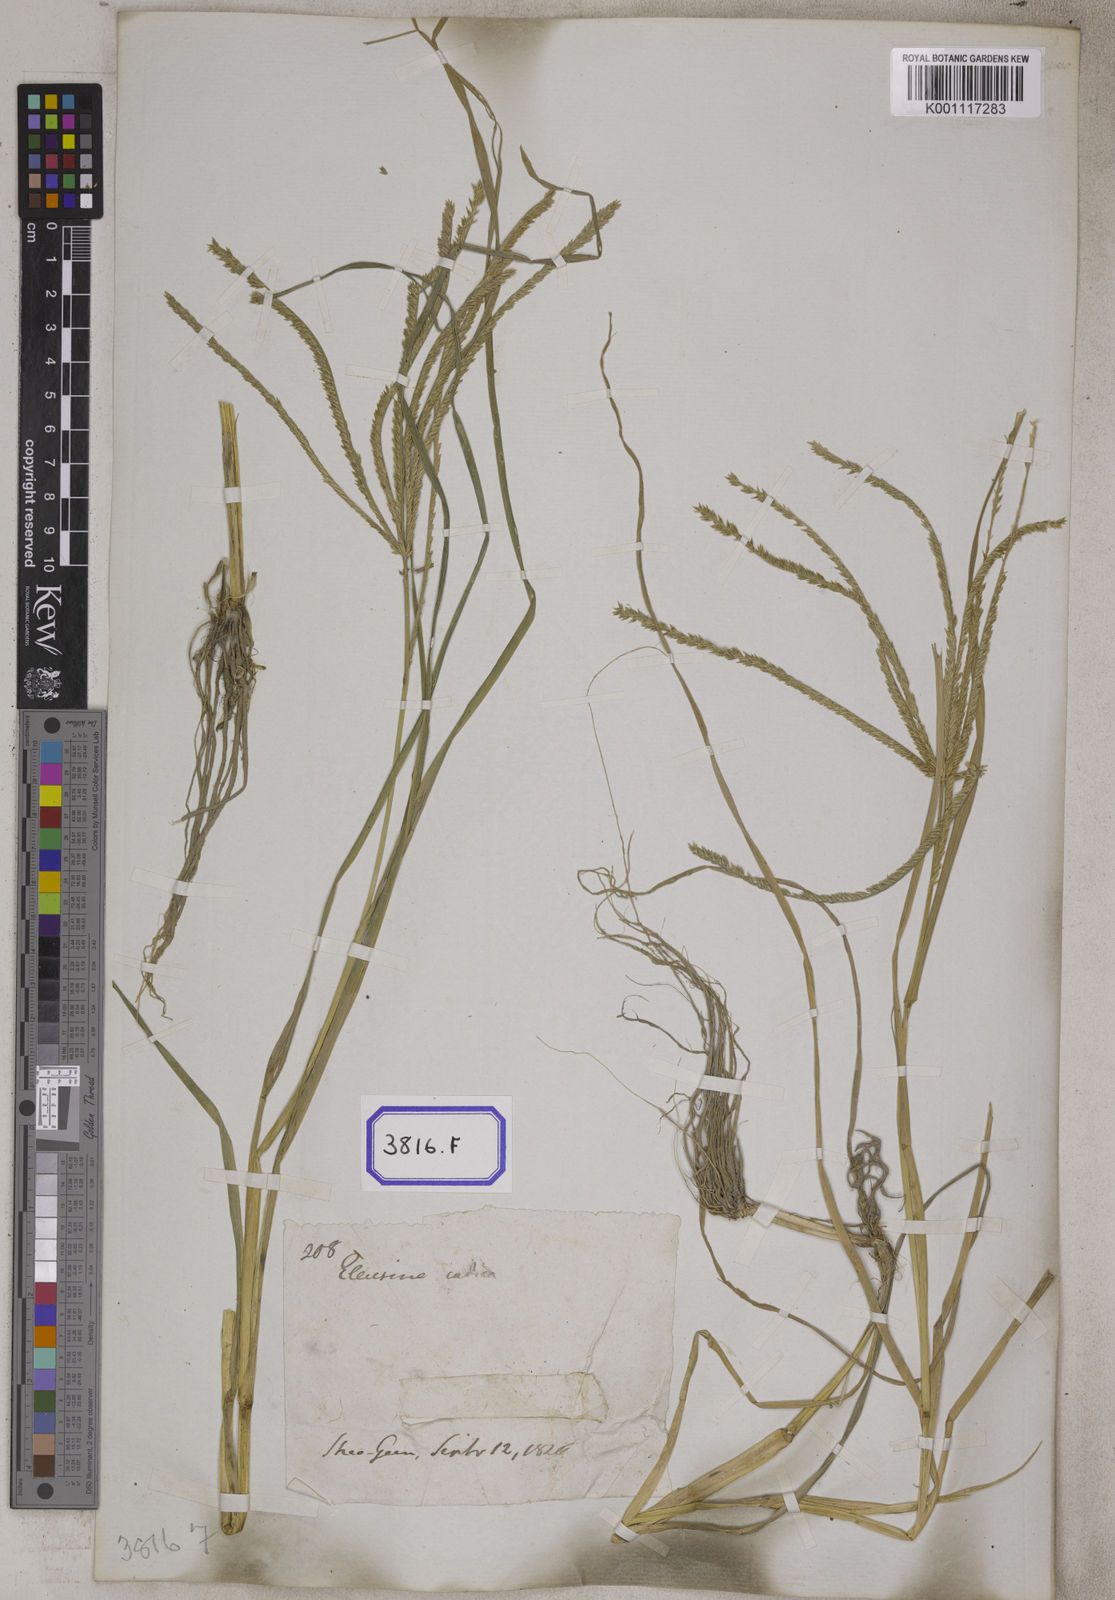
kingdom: Plantae
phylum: Tracheophyta
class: Liliopsida
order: Poales
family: Poaceae
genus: Eleusine
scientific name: Eleusine
